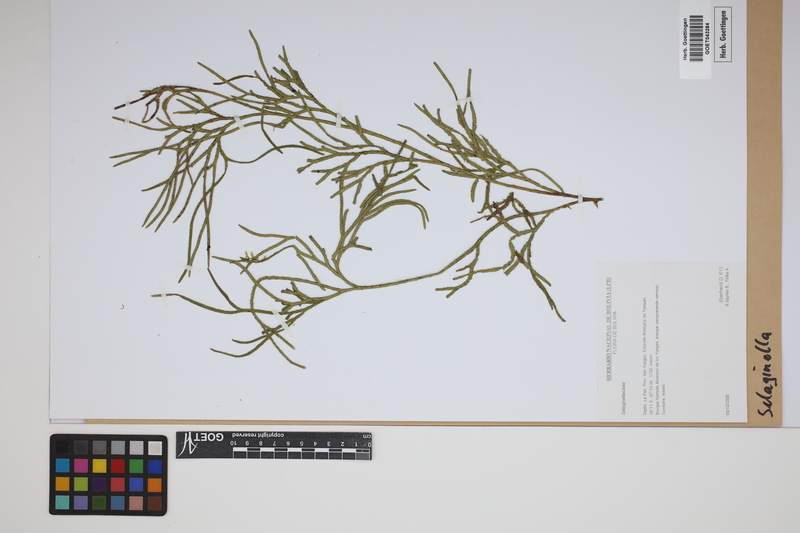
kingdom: Plantae
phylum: Tracheophyta
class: Lycopodiopsida
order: Selaginellales
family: Selaginellaceae
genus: Selaginella
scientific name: Selaginella
